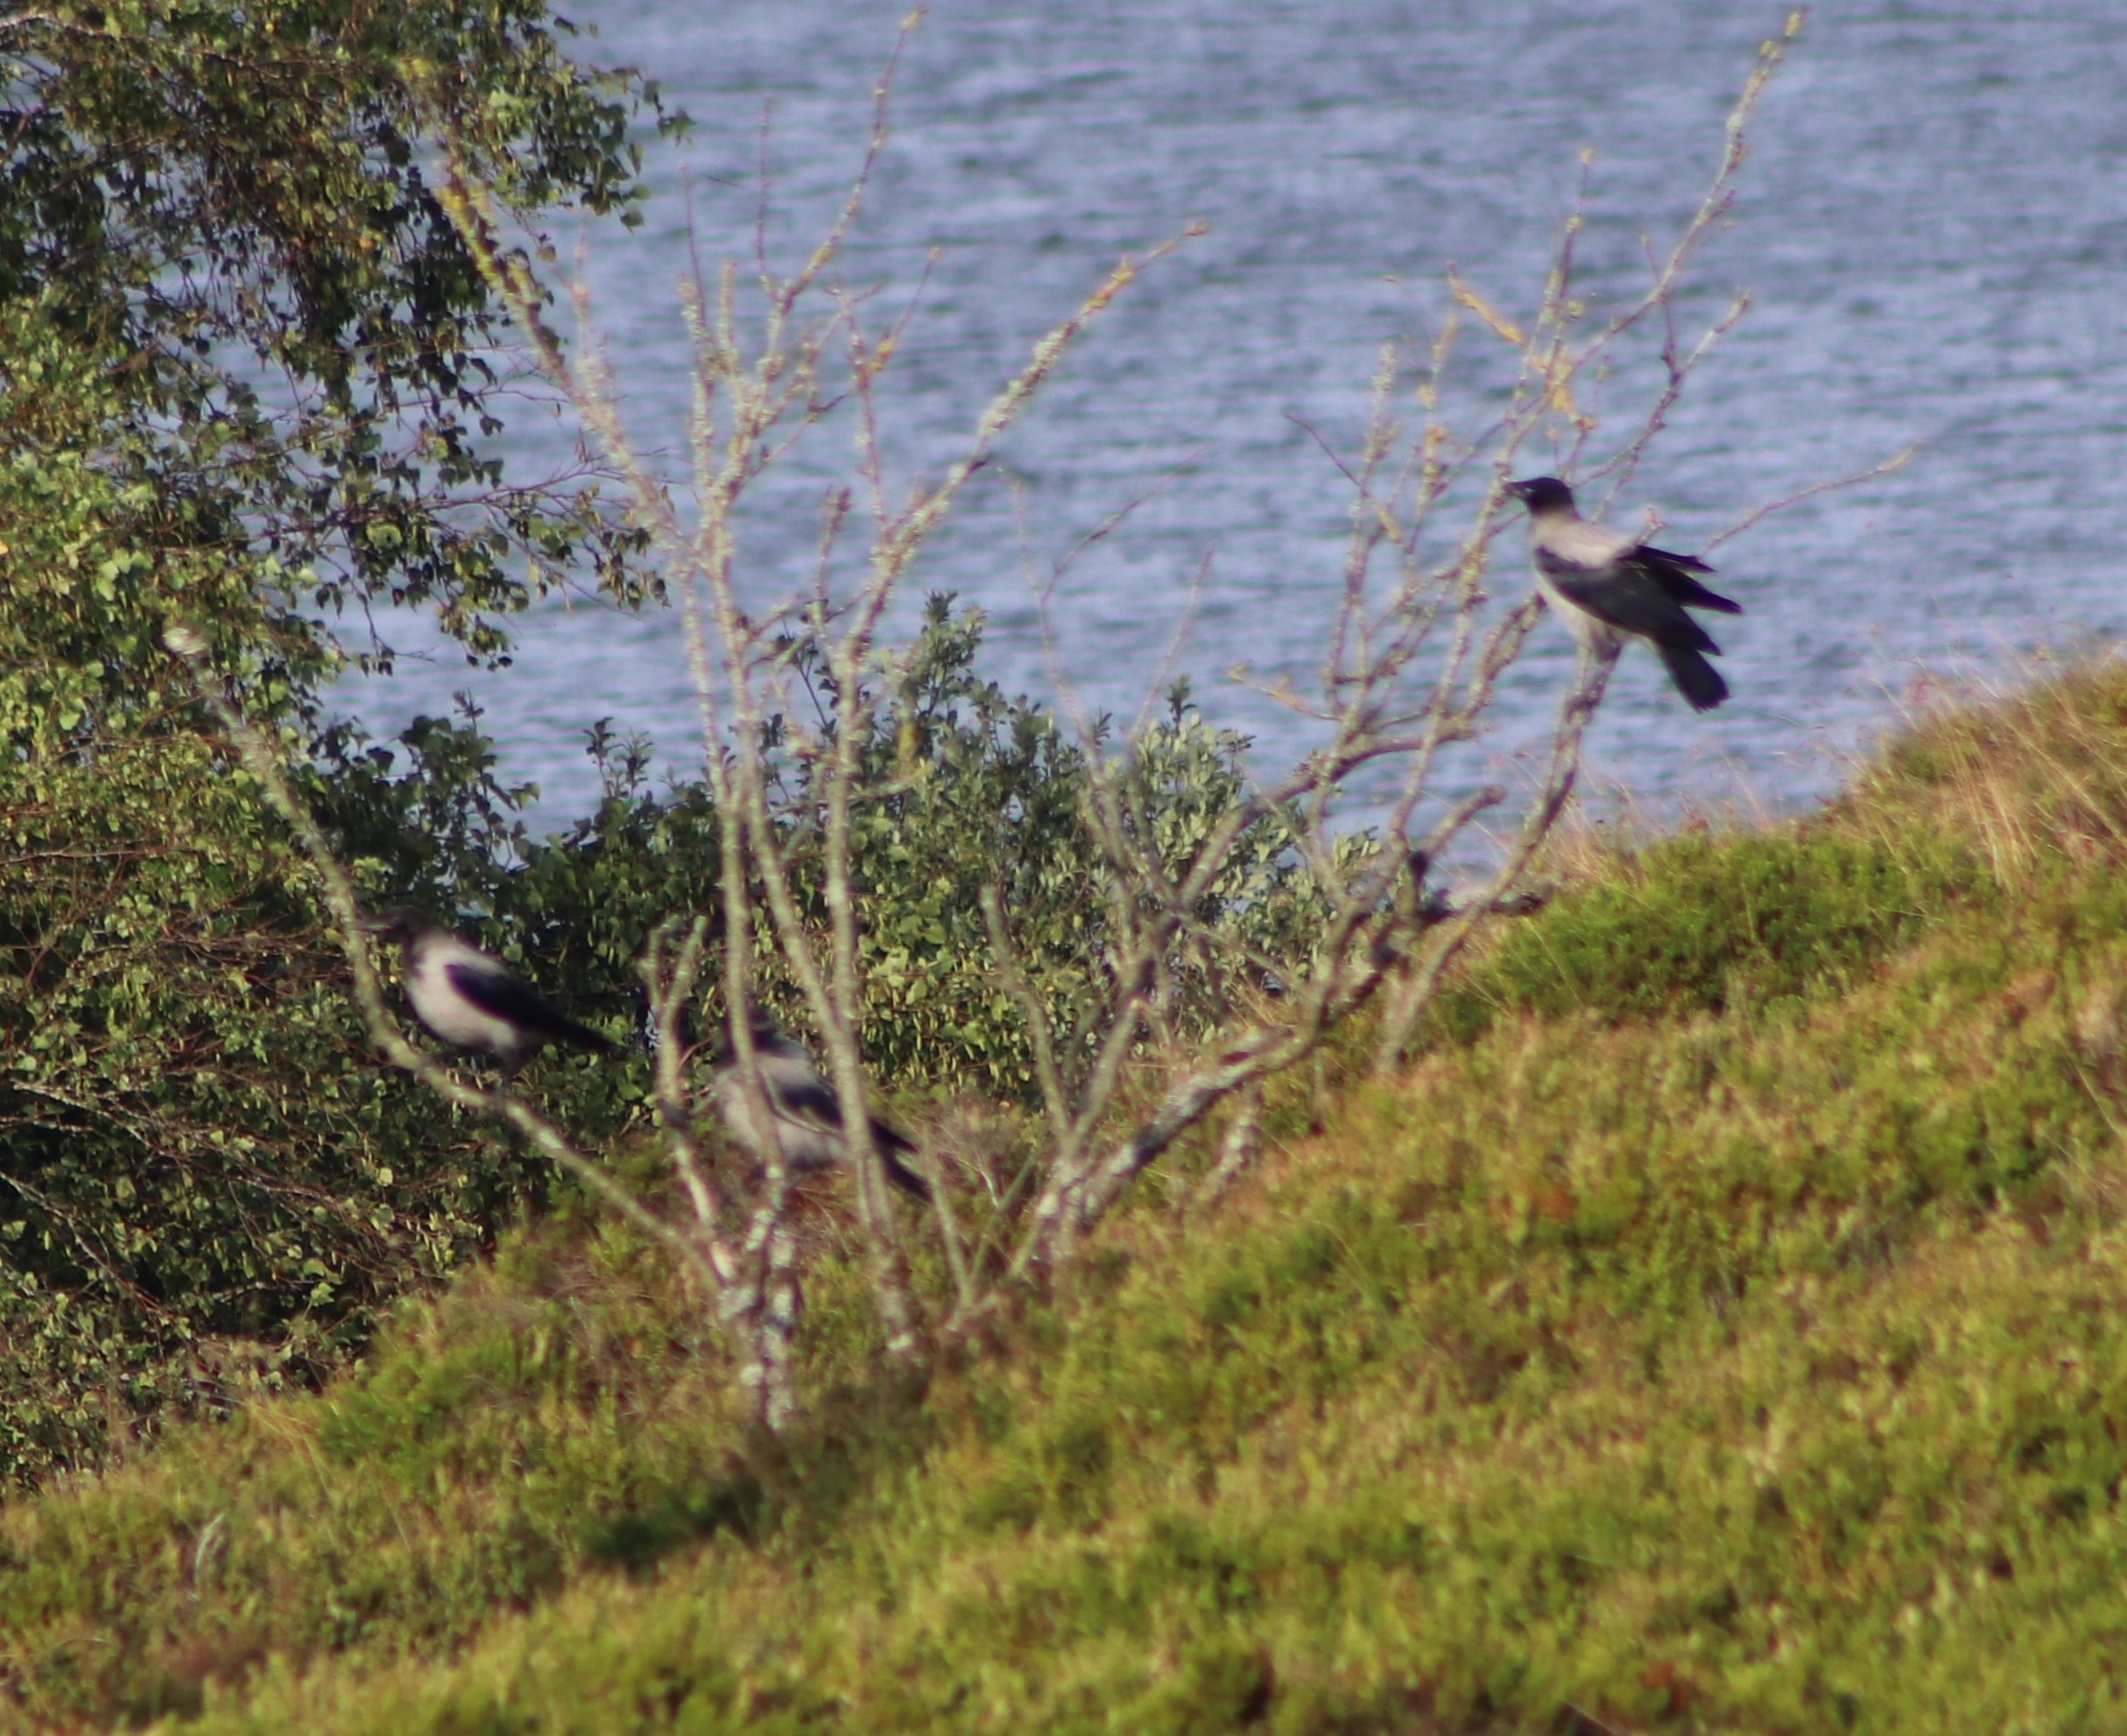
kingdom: Animalia
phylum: Chordata
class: Aves
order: Passeriformes
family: Corvidae
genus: Corvus
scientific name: Corvus cornix
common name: Gråkrage
